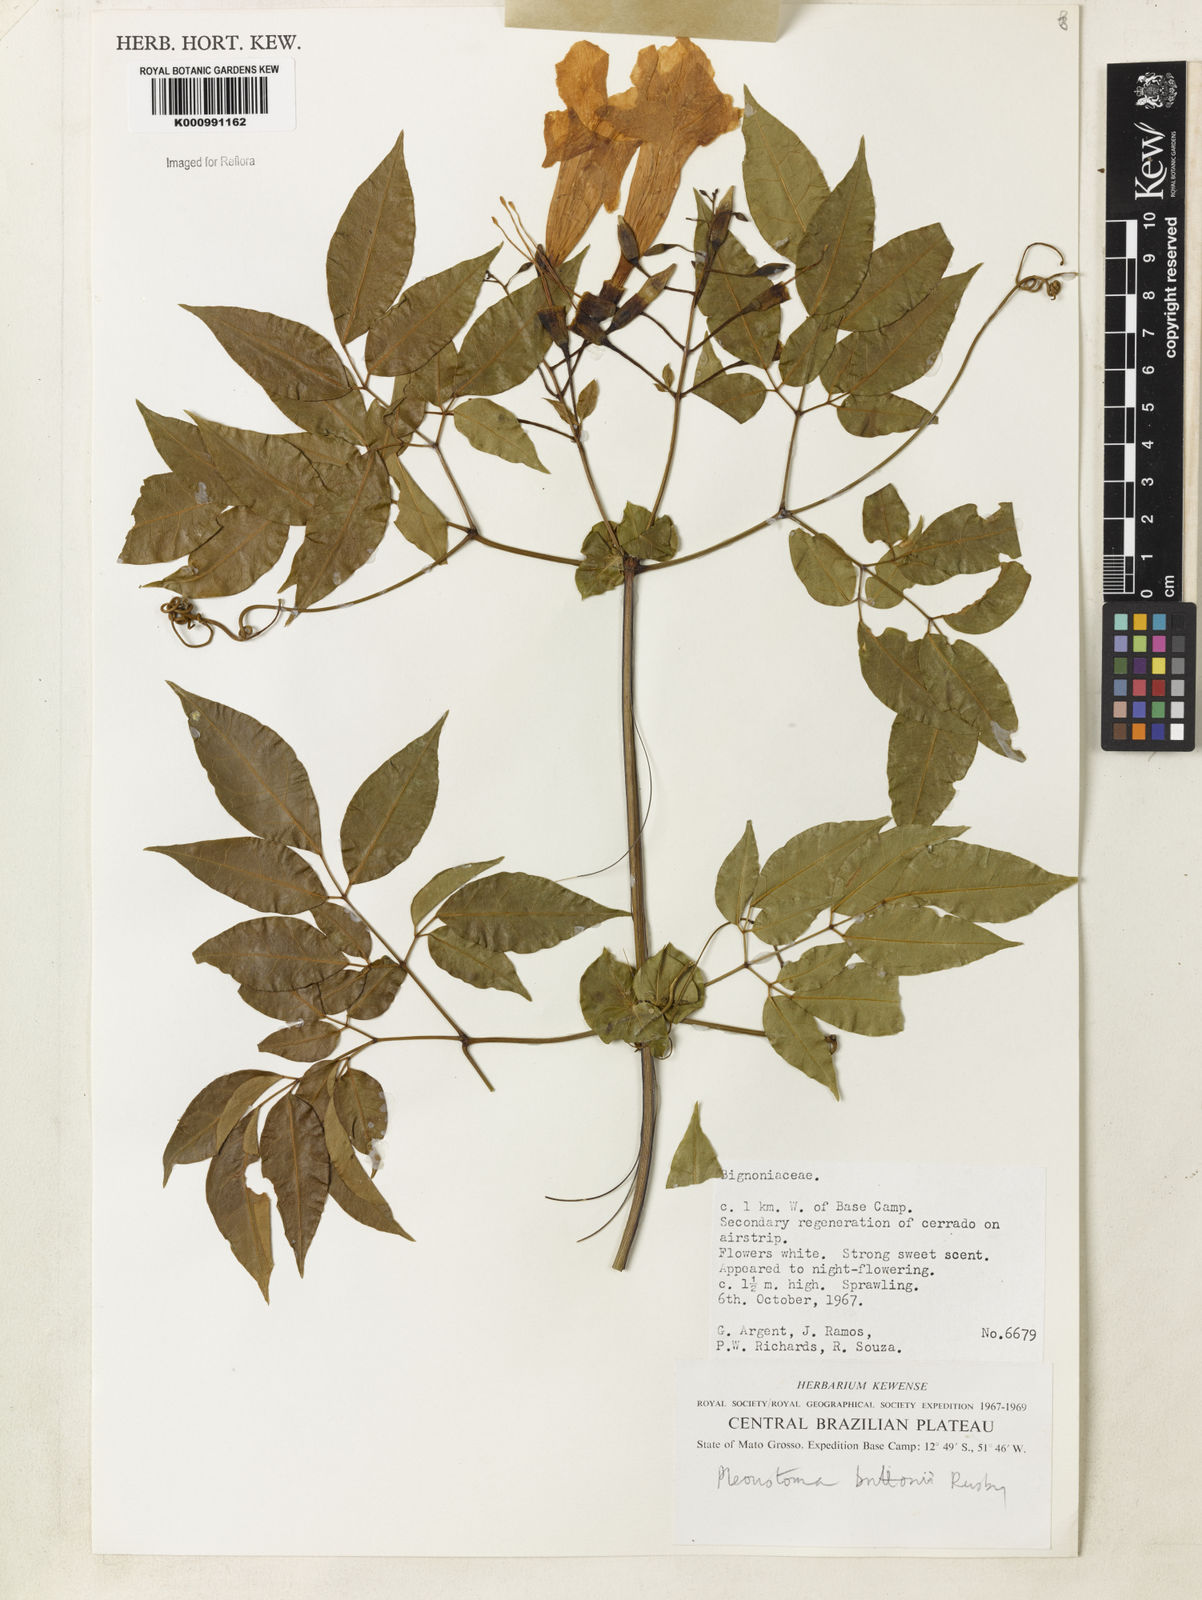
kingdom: Plantae
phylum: Tracheophyta
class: Magnoliopsida
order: Lamiales
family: Bignoniaceae
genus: Pleonotoma
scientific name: Pleonotoma jasminifolia
